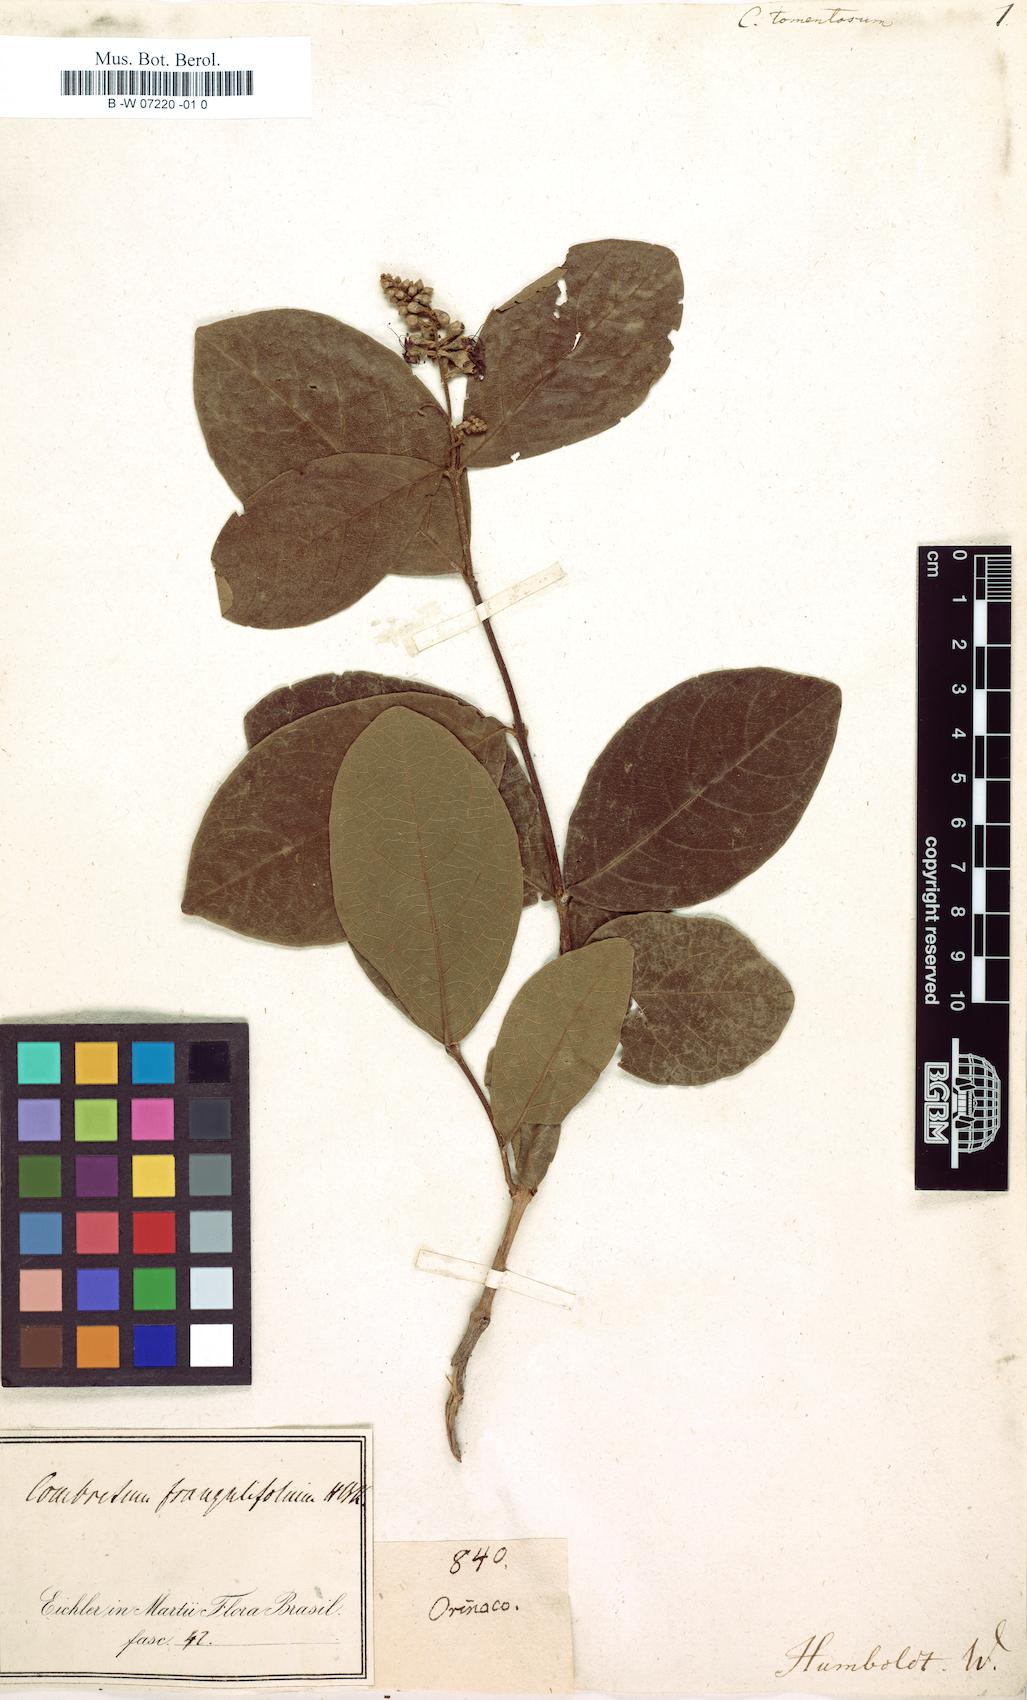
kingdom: Plantae
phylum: Tracheophyta
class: Magnoliopsida
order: Myrtales
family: Combretaceae
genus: Combretum
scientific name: Combretum frangulifolium
